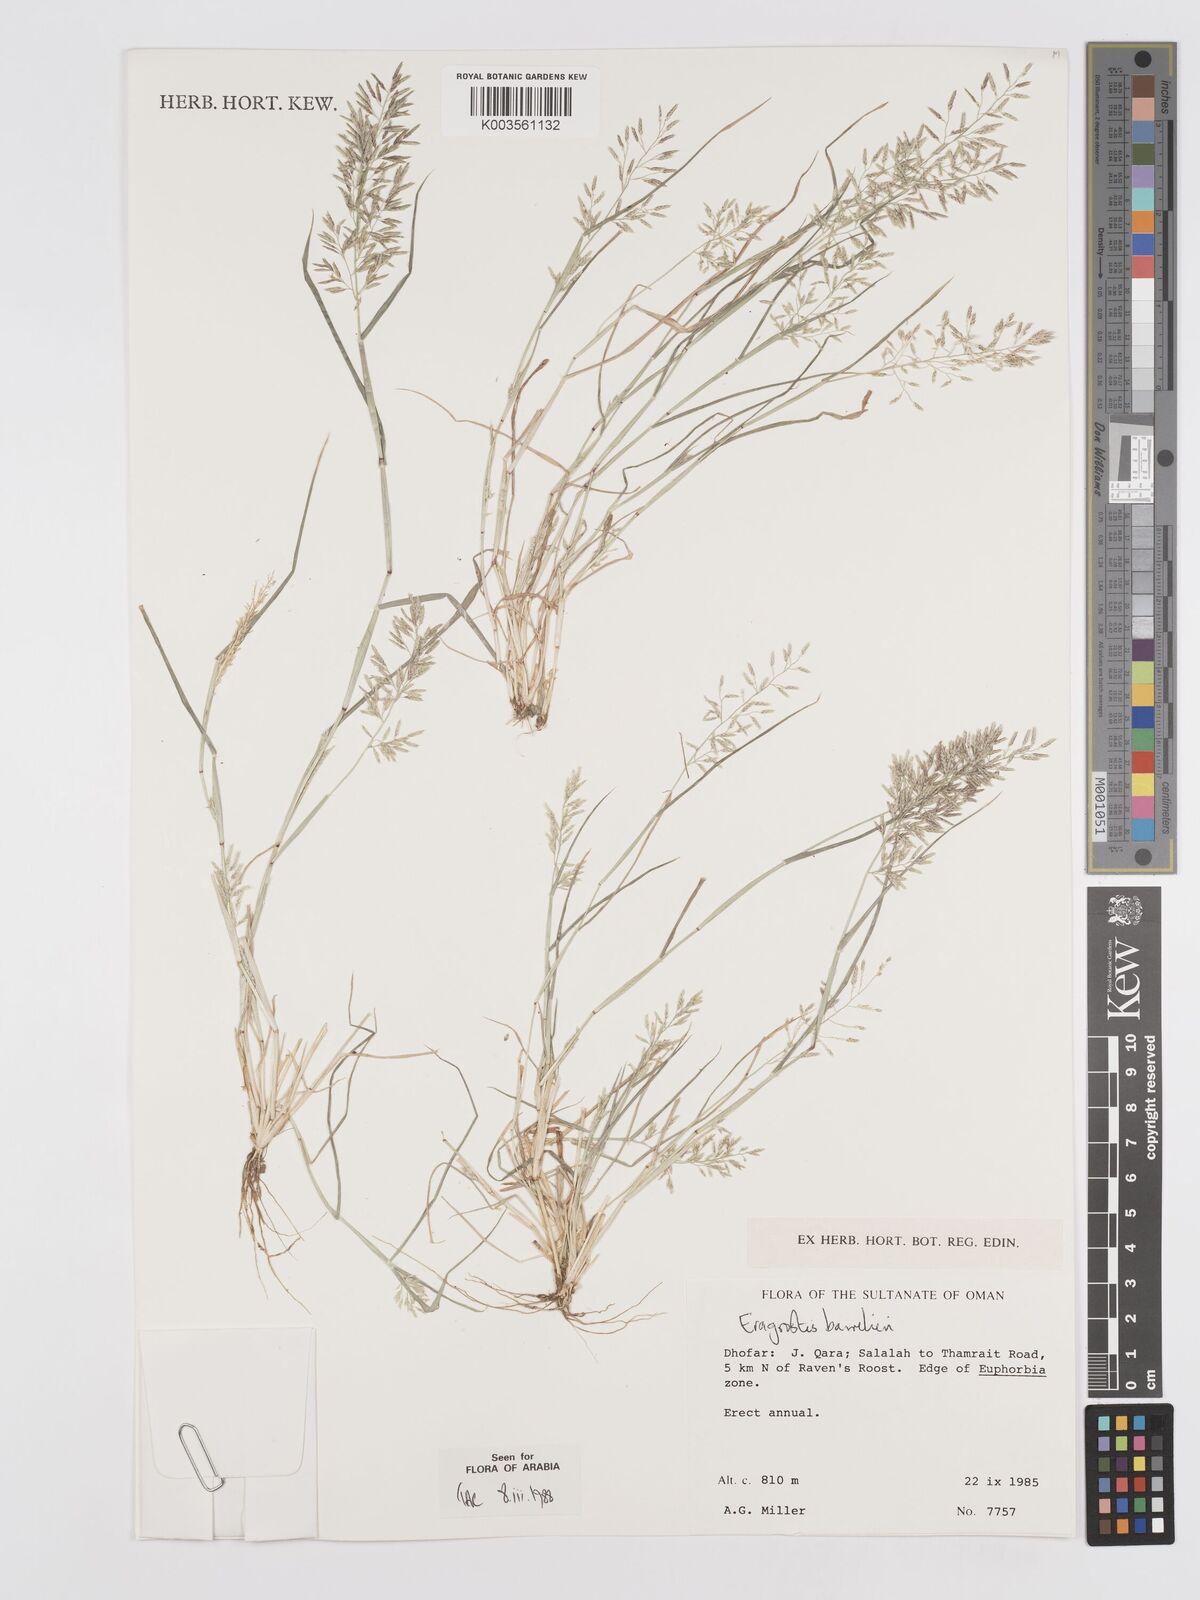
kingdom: Plantae
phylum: Tracheophyta
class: Liliopsida
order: Poales
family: Poaceae
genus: Eragrostis
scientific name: Eragrostis barrelieri
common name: Mediterranean lovegrass
